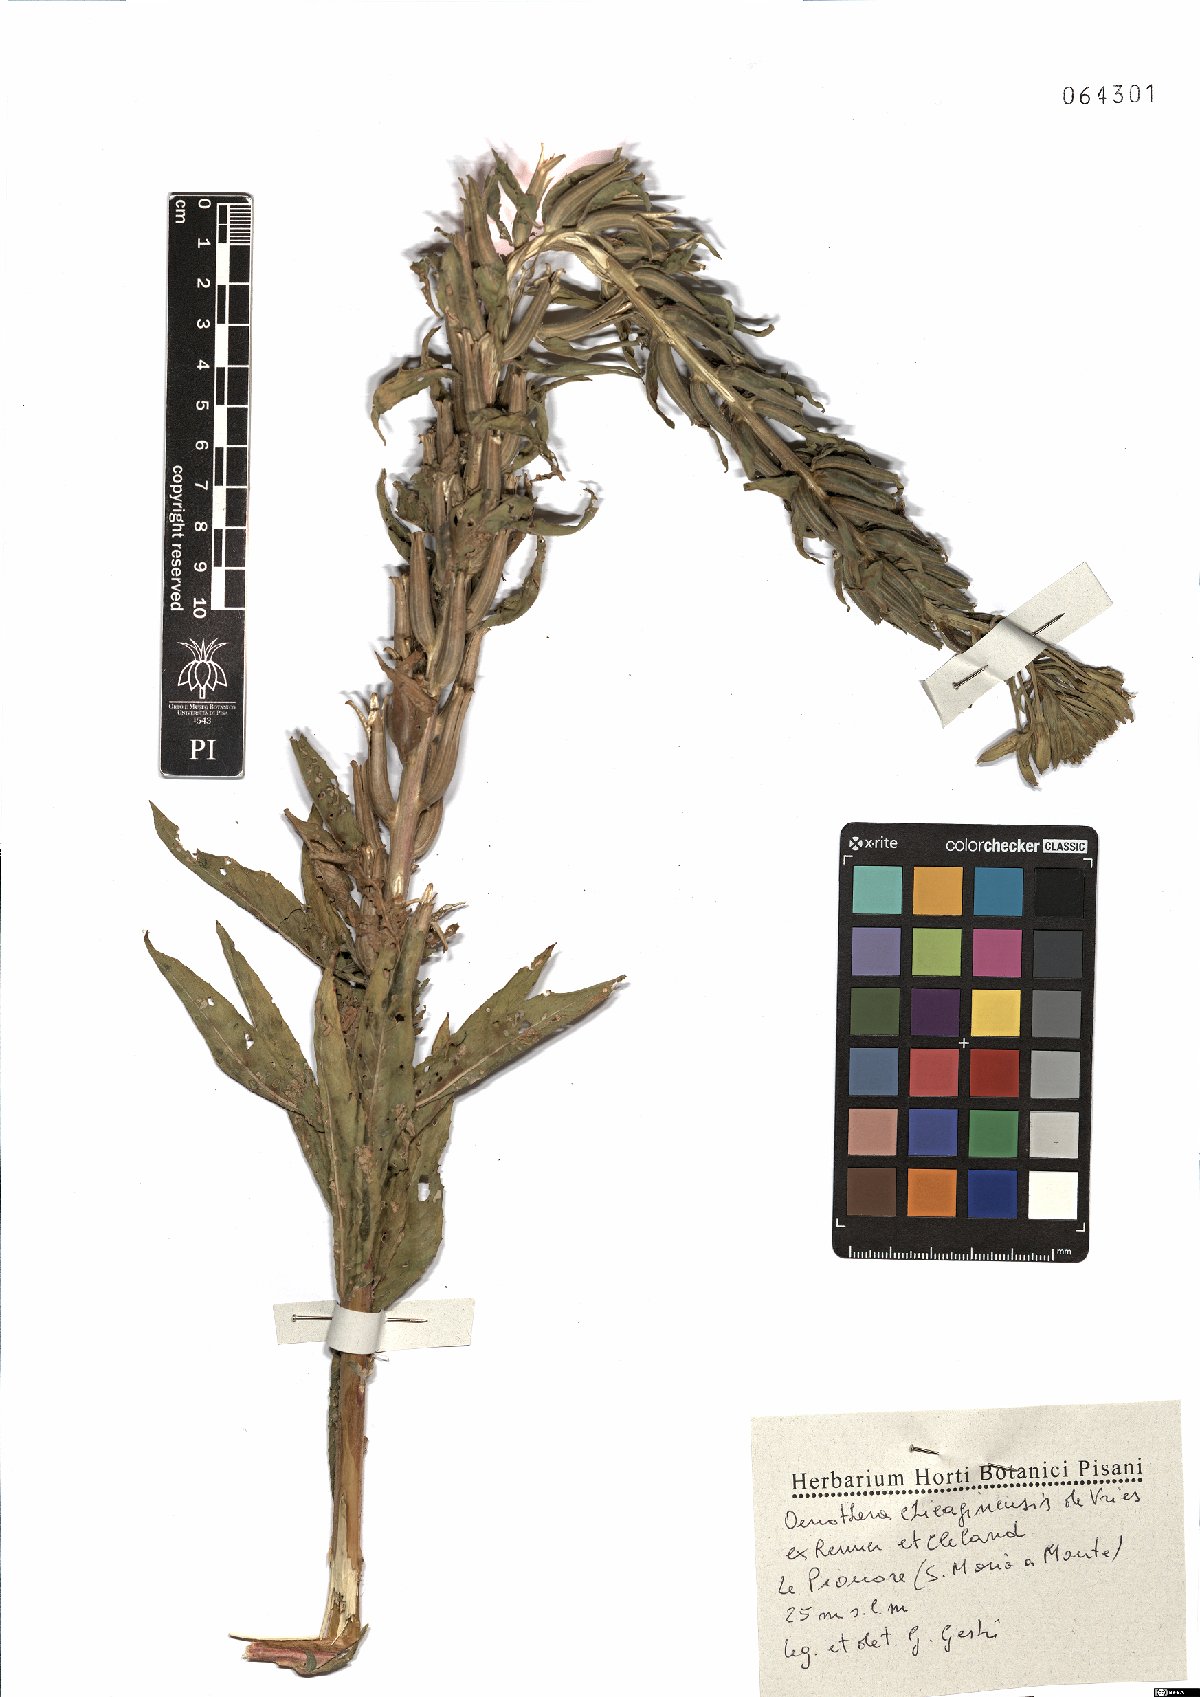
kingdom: Plantae
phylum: Tracheophyta
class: Magnoliopsida
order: Myrtales
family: Onagraceae
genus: Oenothera
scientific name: Oenothera chicaginensis
